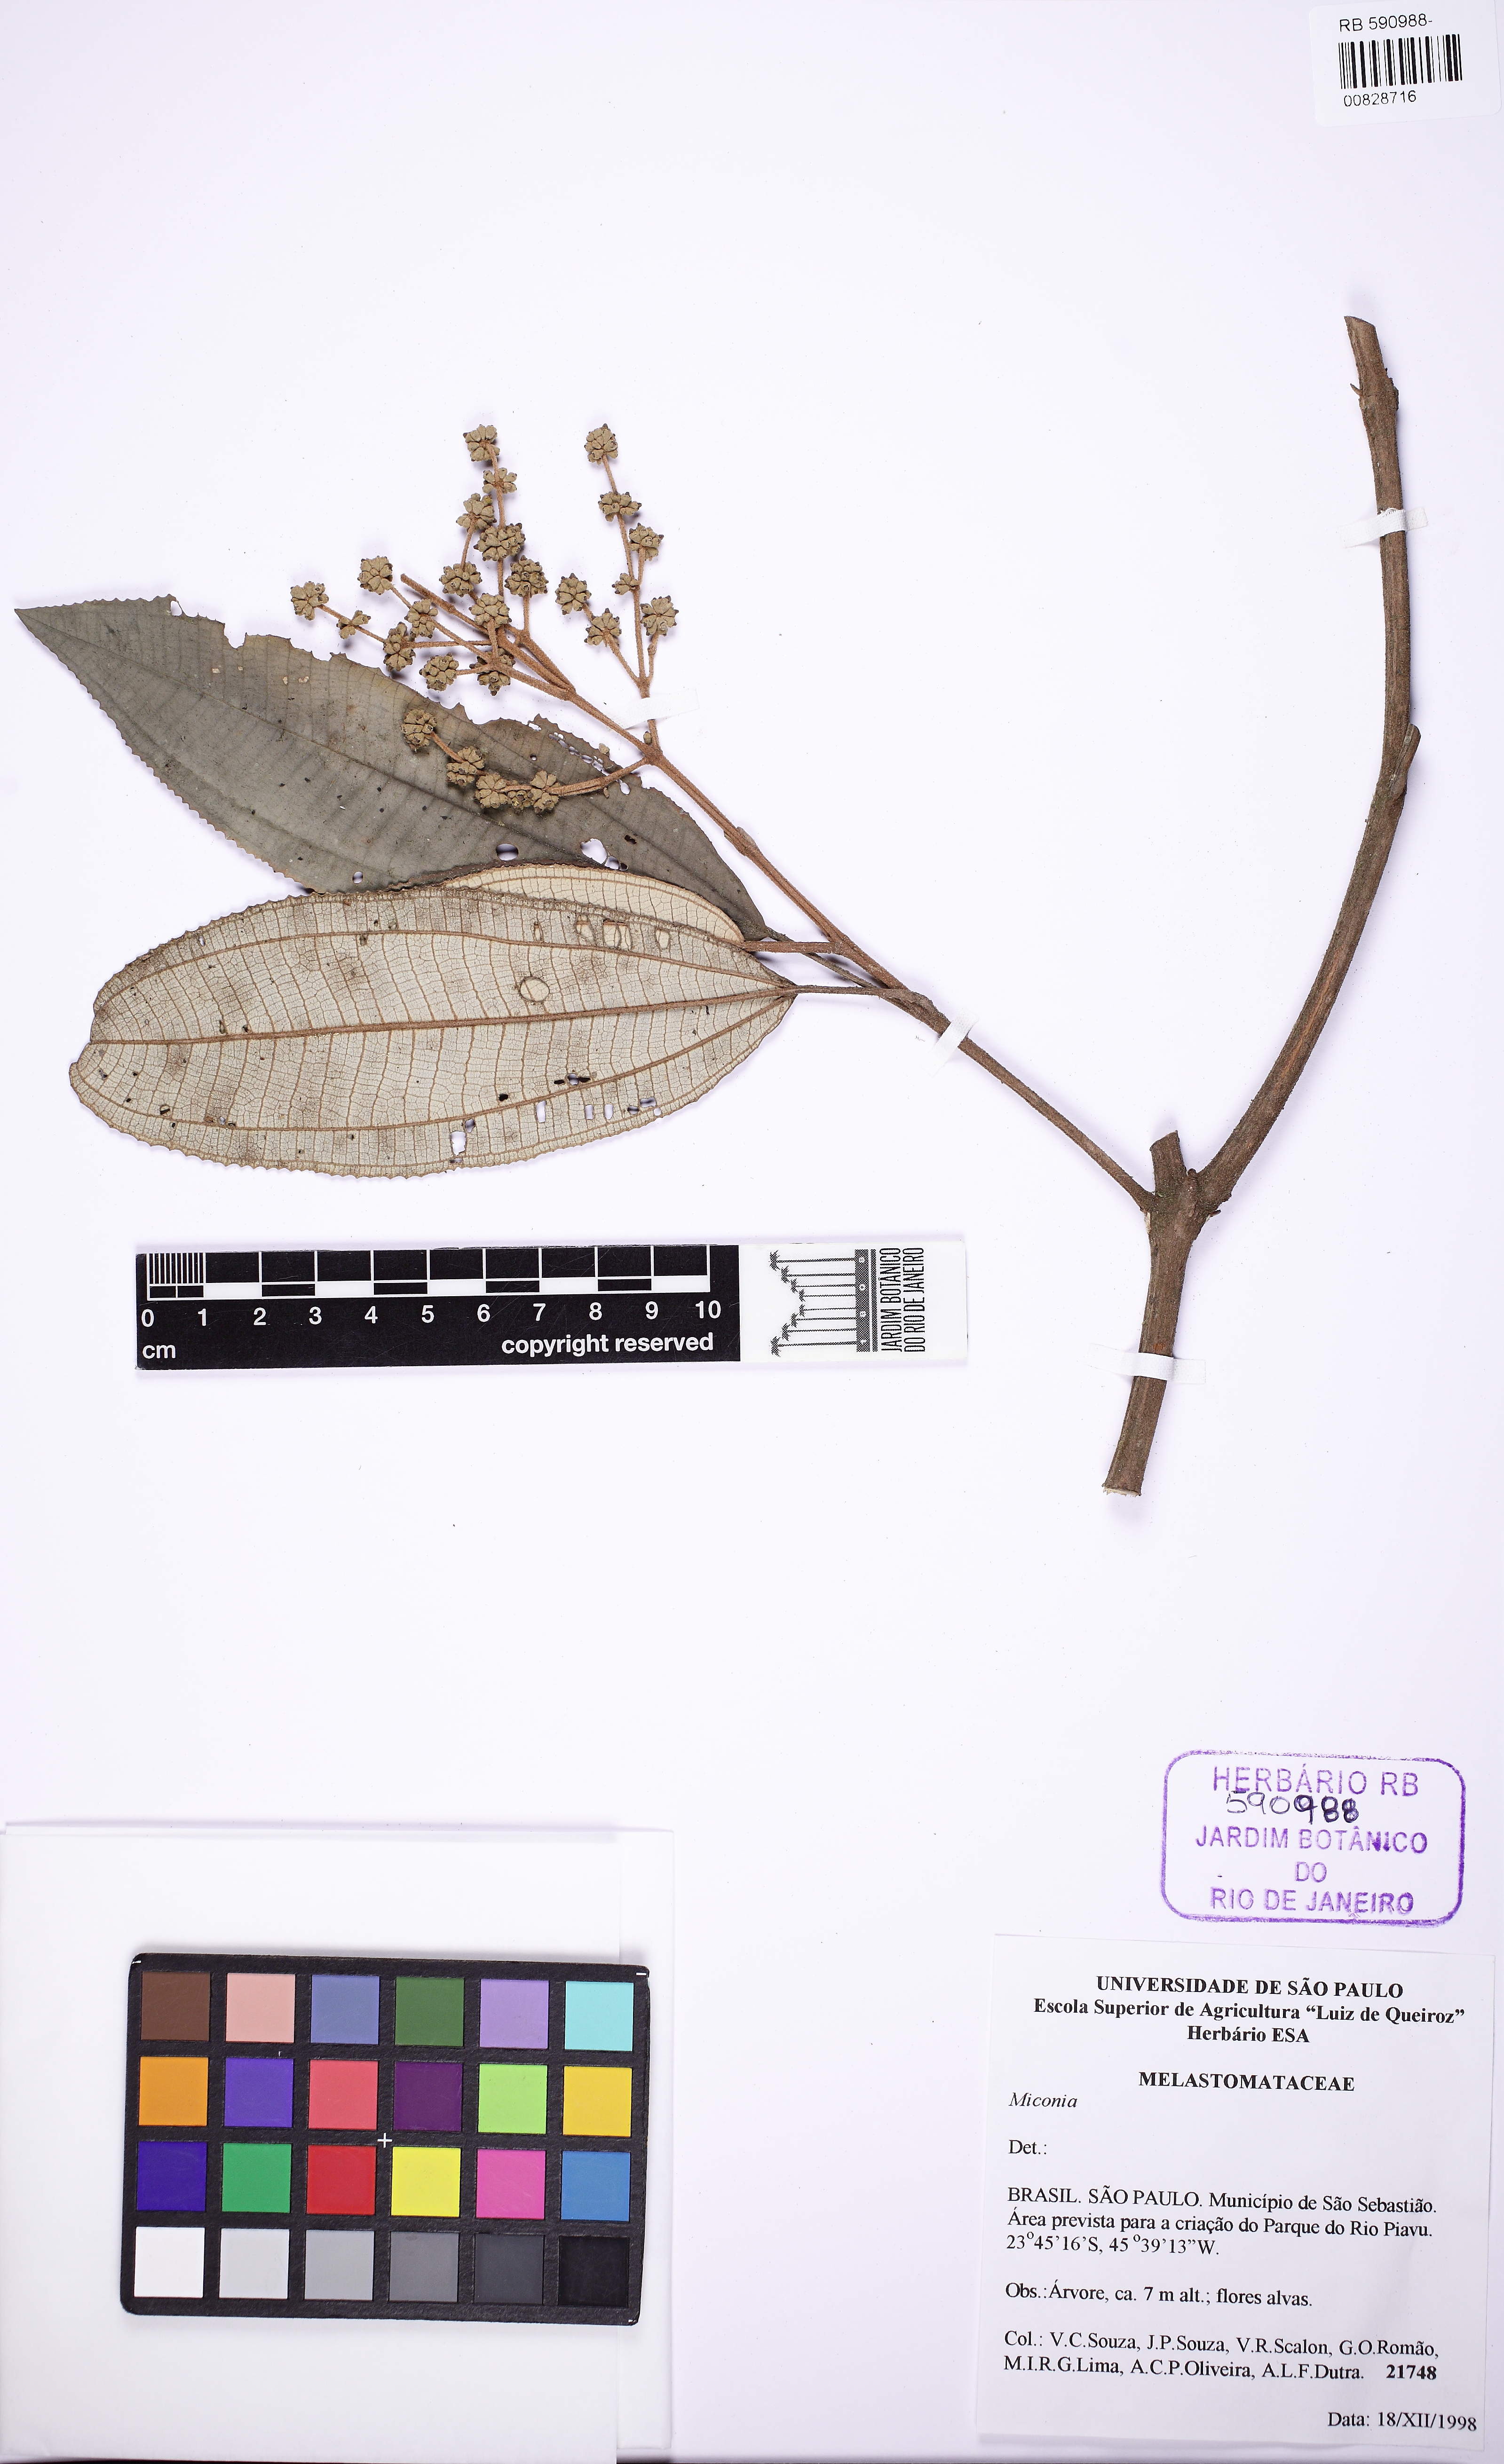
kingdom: Plantae
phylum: Tracheophyta
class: Magnoliopsida
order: Myrtales
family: Melastomataceae
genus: Miconia
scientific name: Miconia cinerascens
